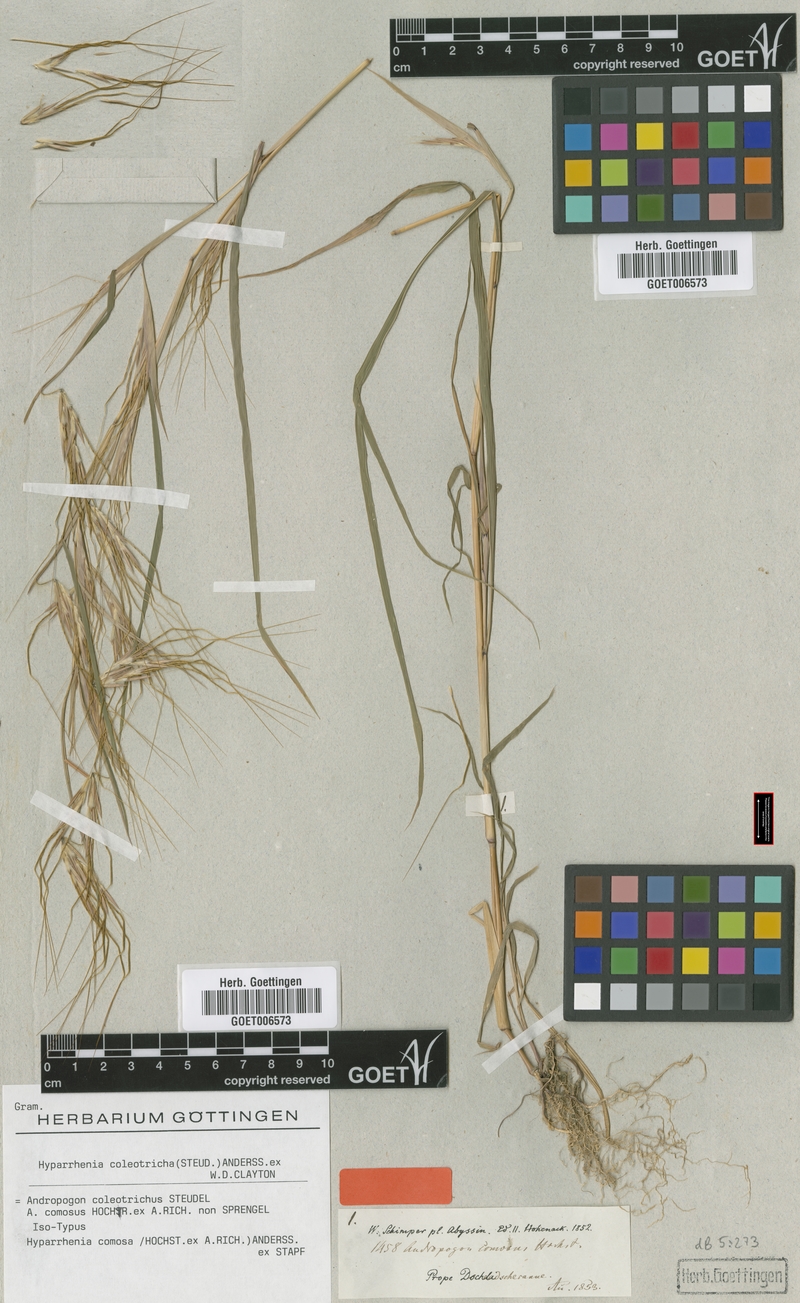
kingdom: Plantae
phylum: Tracheophyta
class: Liliopsida
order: Poales
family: Poaceae
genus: Hyparrhenia
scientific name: Hyparrhenia coleotricha
